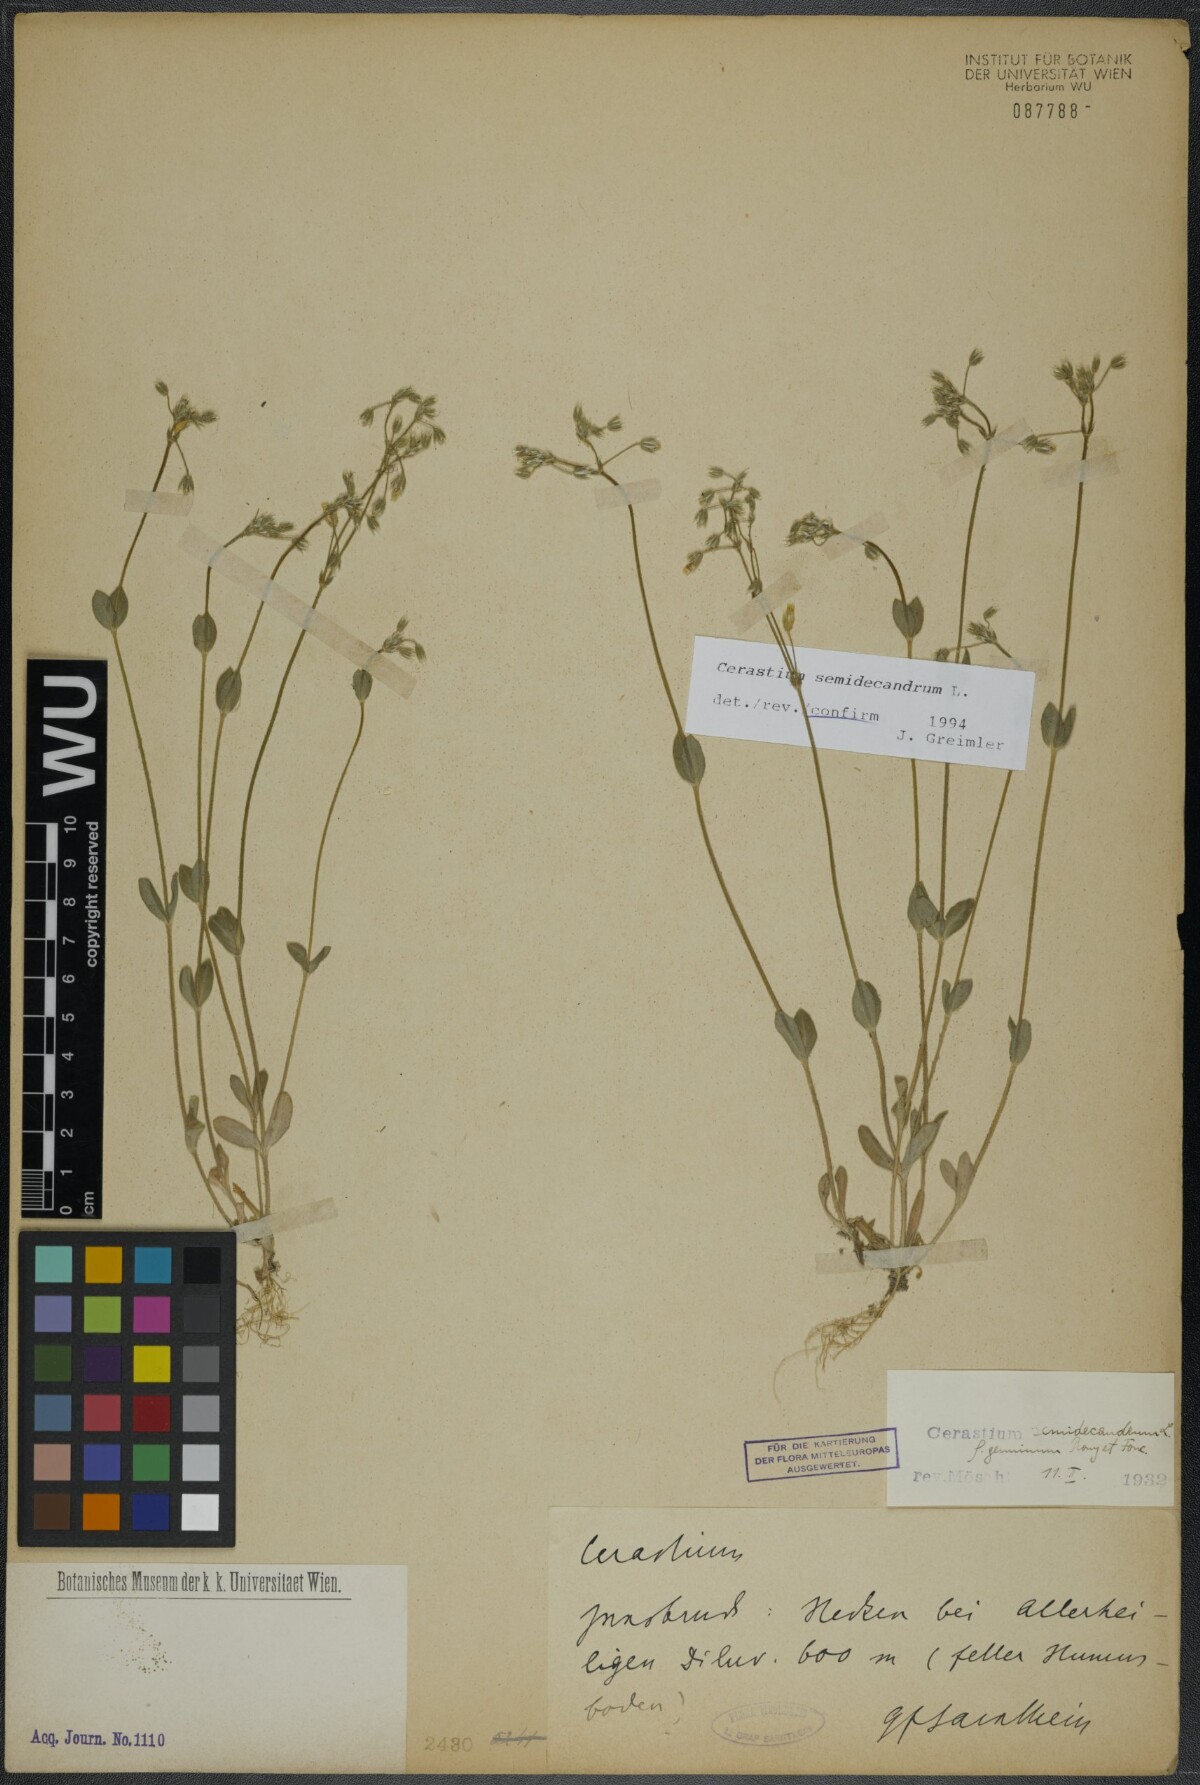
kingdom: Plantae
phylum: Tracheophyta
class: Magnoliopsida
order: Caryophyllales
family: Caryophyllaceae
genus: Cerastium
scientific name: Cerastium semidecandrum
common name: Little mouse-ear
